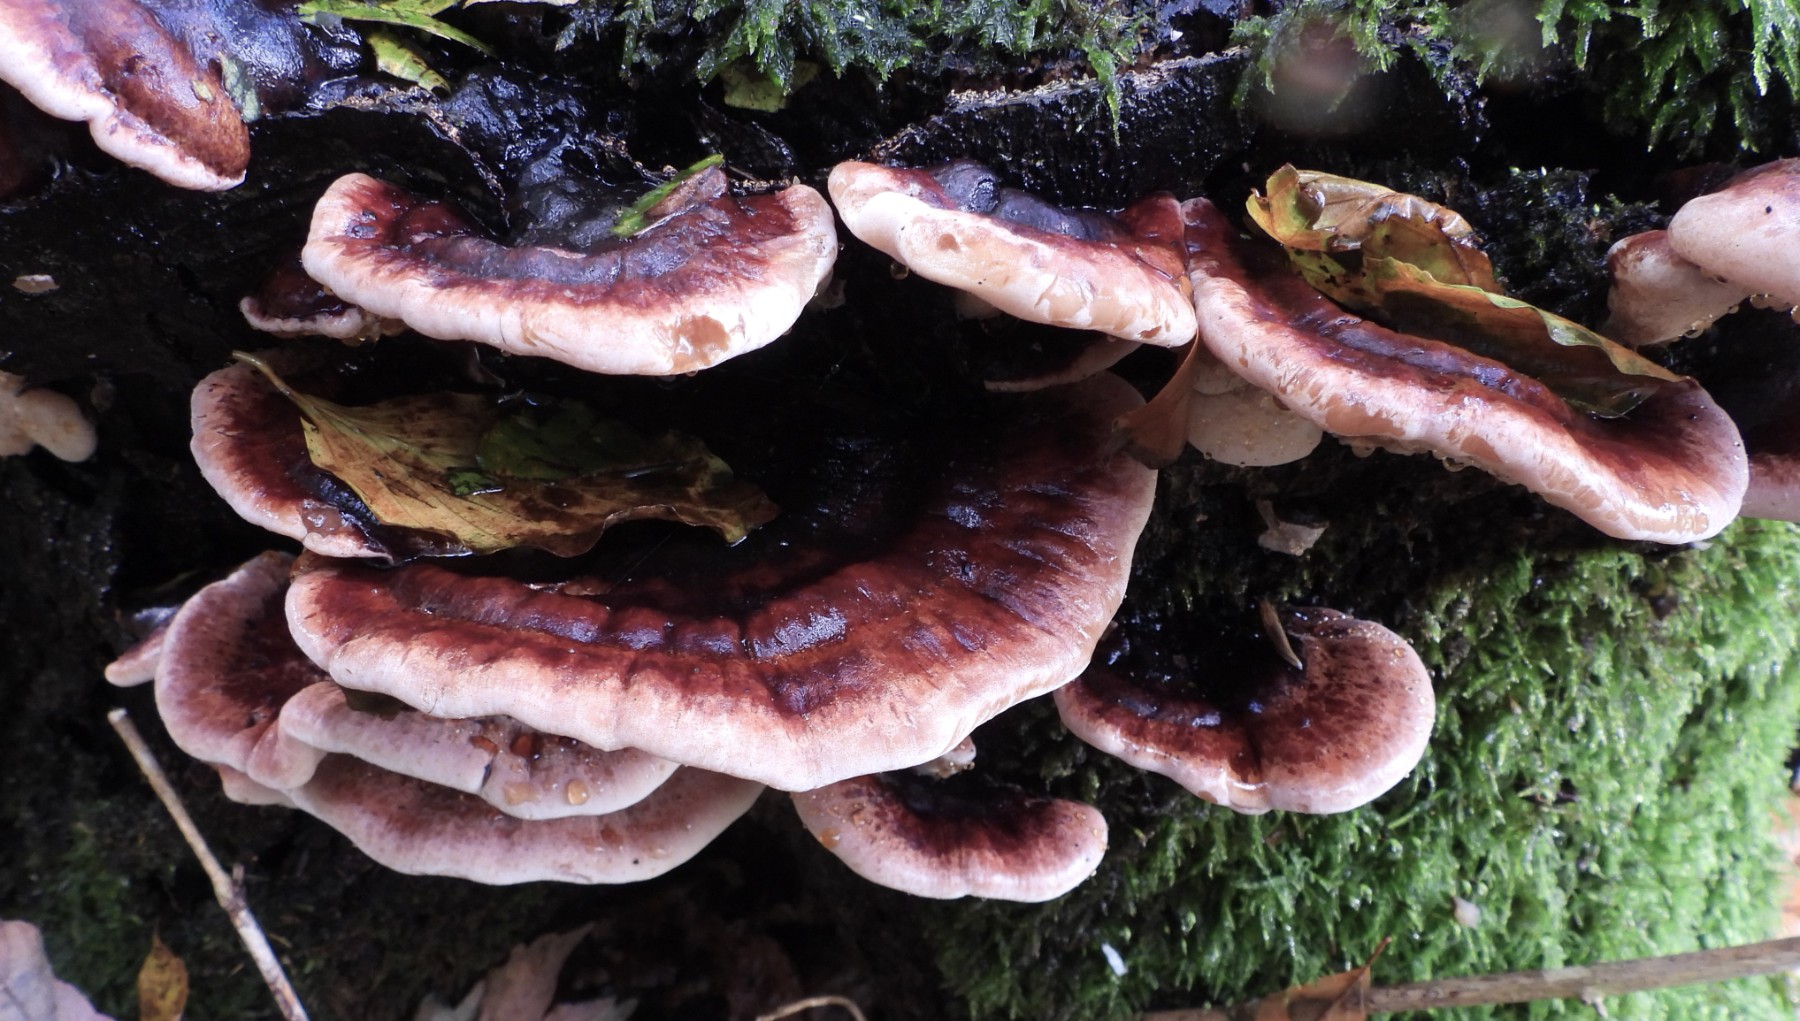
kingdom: Fungi
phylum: Basidiomycota
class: Agaricomycetes
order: Polyporales
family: Ischnodermataceae
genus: Ischnoderma
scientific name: Ischnoderma resinosum
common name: løv-tjæreporesvamp
